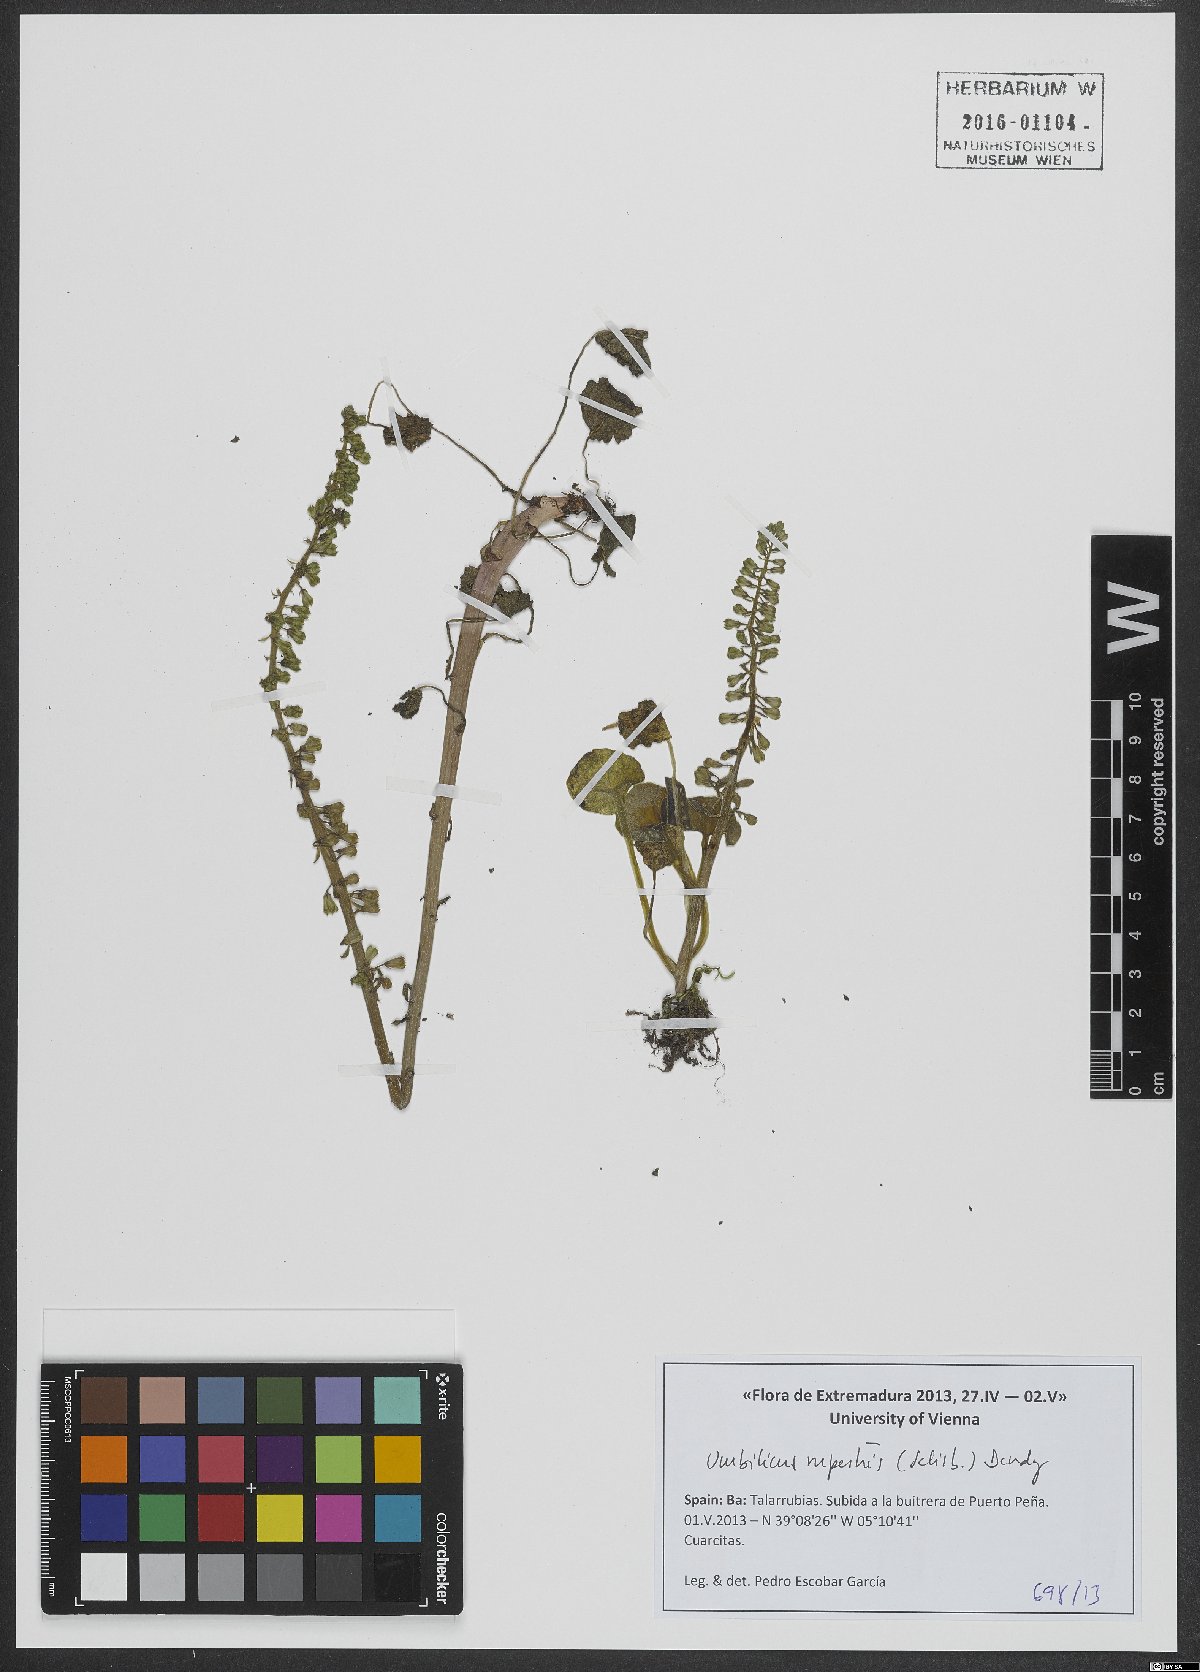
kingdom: Plantae
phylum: Tracheophyta
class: Magnoliopsida
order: Saxifragales
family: Crassulaceae
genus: Umbilicus
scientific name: Umbilicus rupestris
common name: Navelwort
